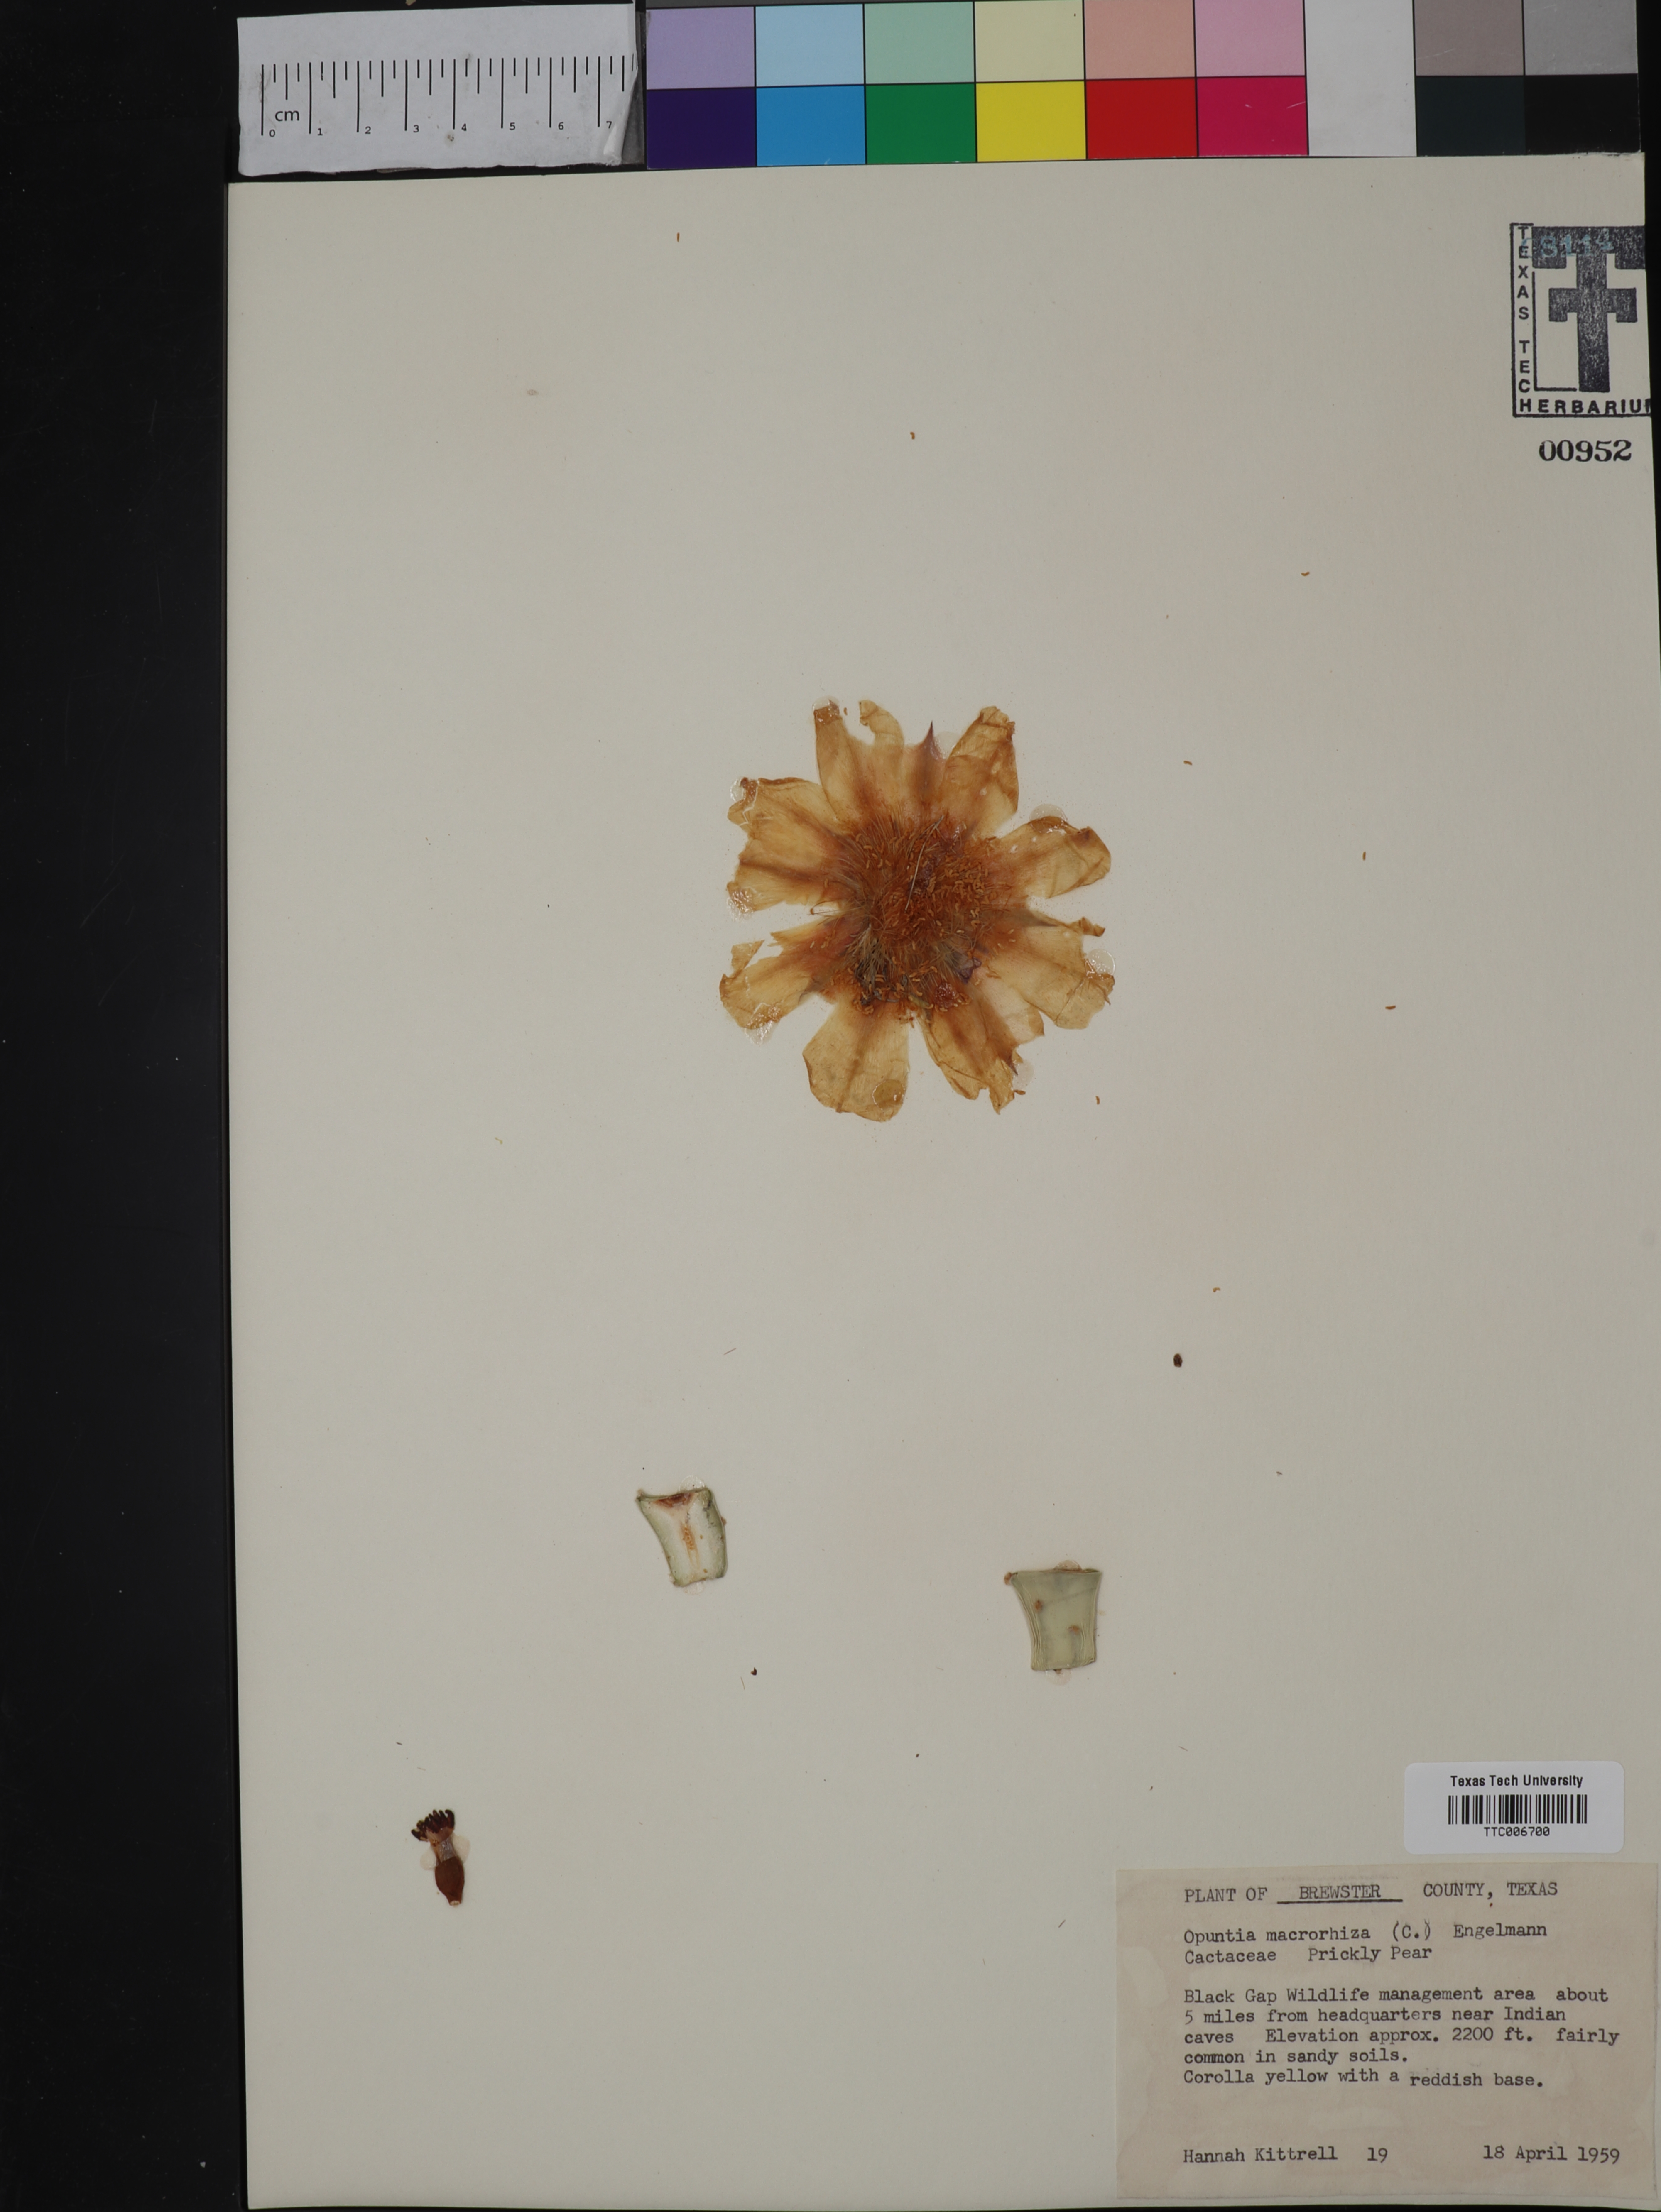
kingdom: Plantae
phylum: Tracheophyta
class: Magnoliopsida
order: Caryophyllales
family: Cactaceae
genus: Opuntia
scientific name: Opuntia macrorhiza
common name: Grassland pricklypear
